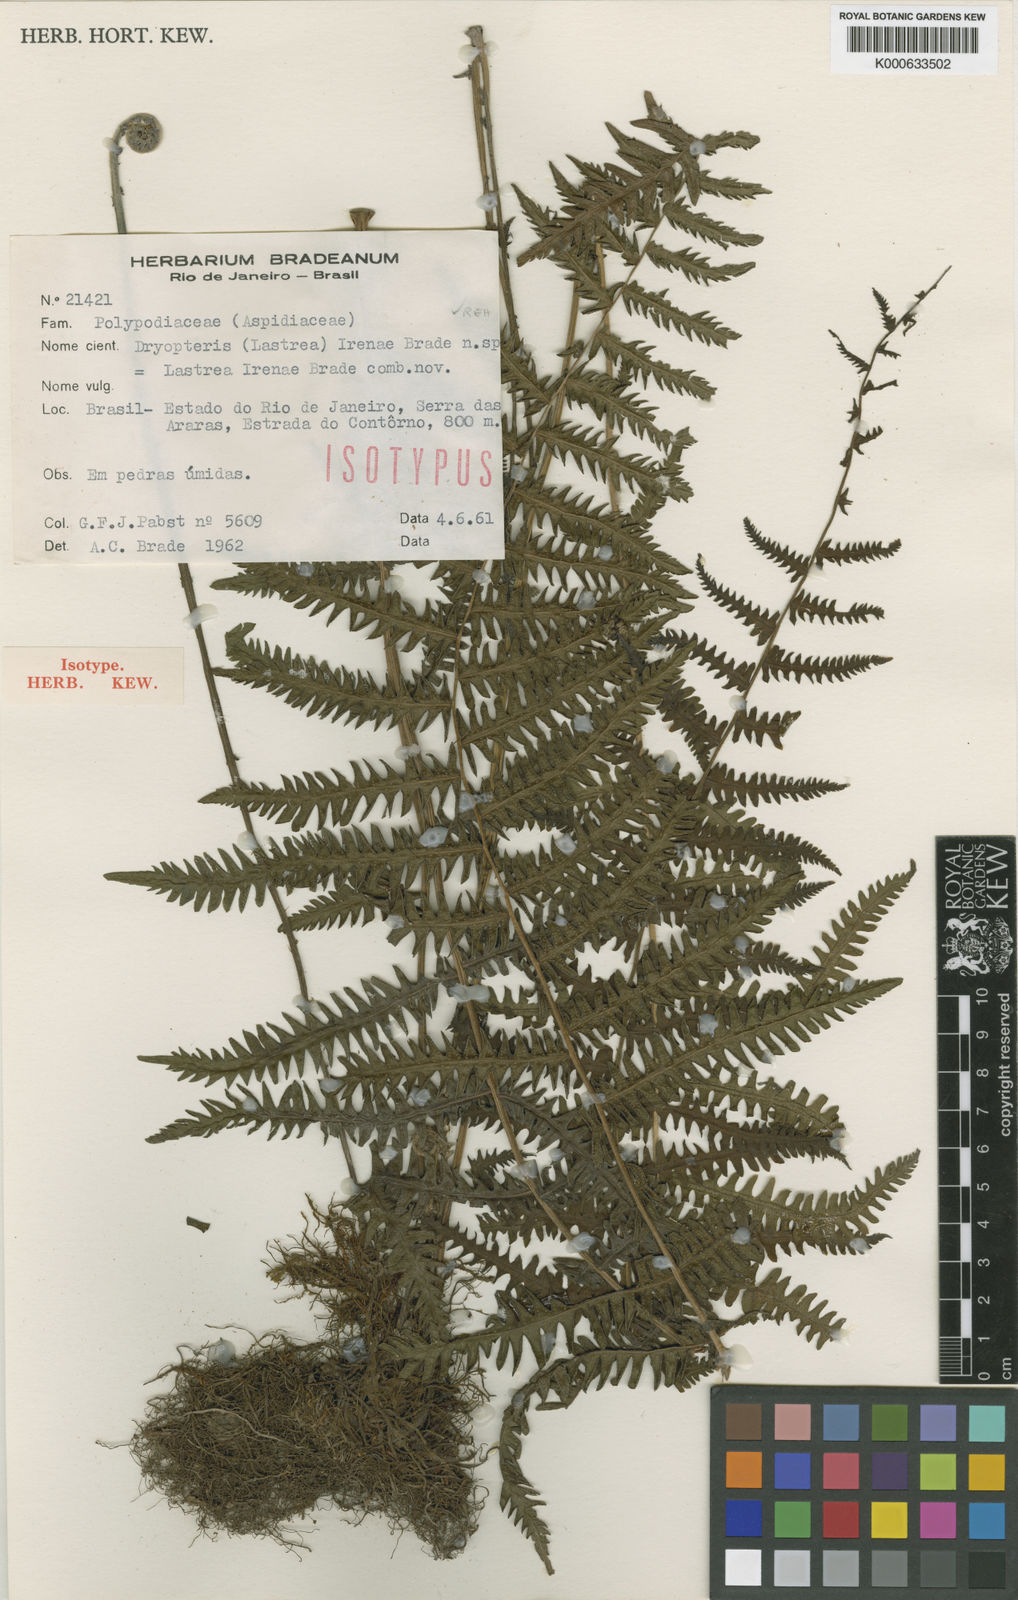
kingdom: Plantae
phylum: Tracheophyta
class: Polypodiopsida
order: Polypodiales
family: Thelypteridaceae
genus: Amauropelta
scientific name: Amauropelta
